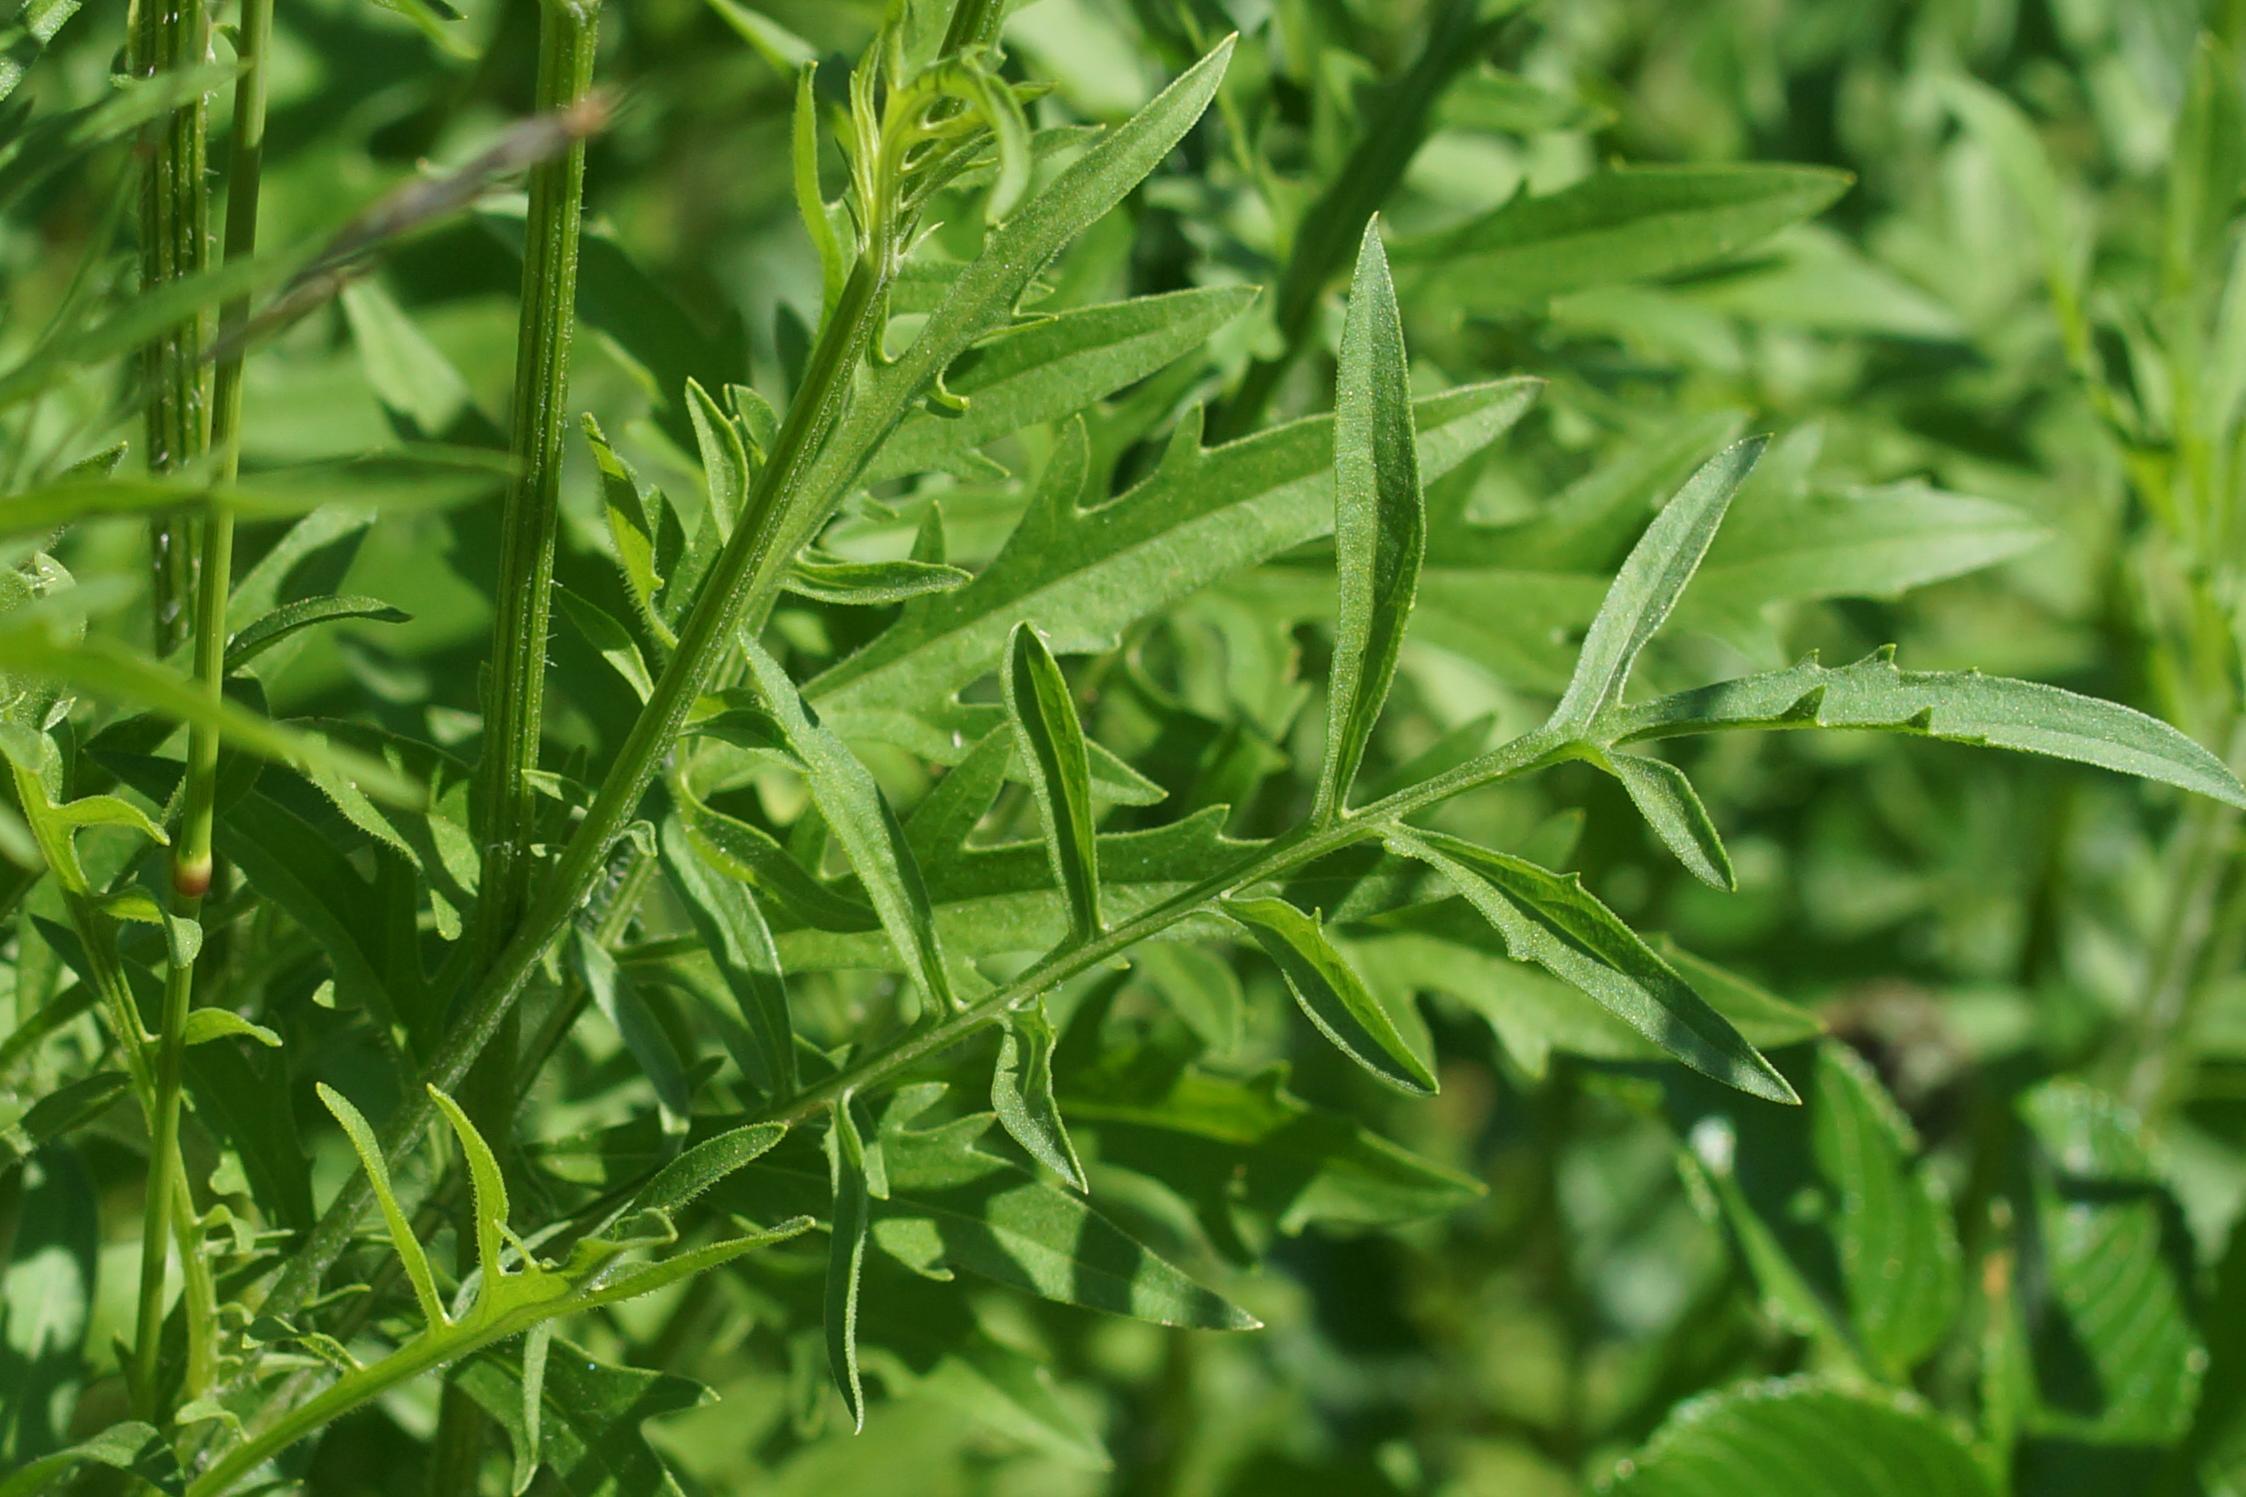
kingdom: Plantae
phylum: Tracheophyta
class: Magnoliopsida
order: Asterales
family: Asteraceae
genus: Centaurea
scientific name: Centaurea scabiosa
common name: Stor knopurt
